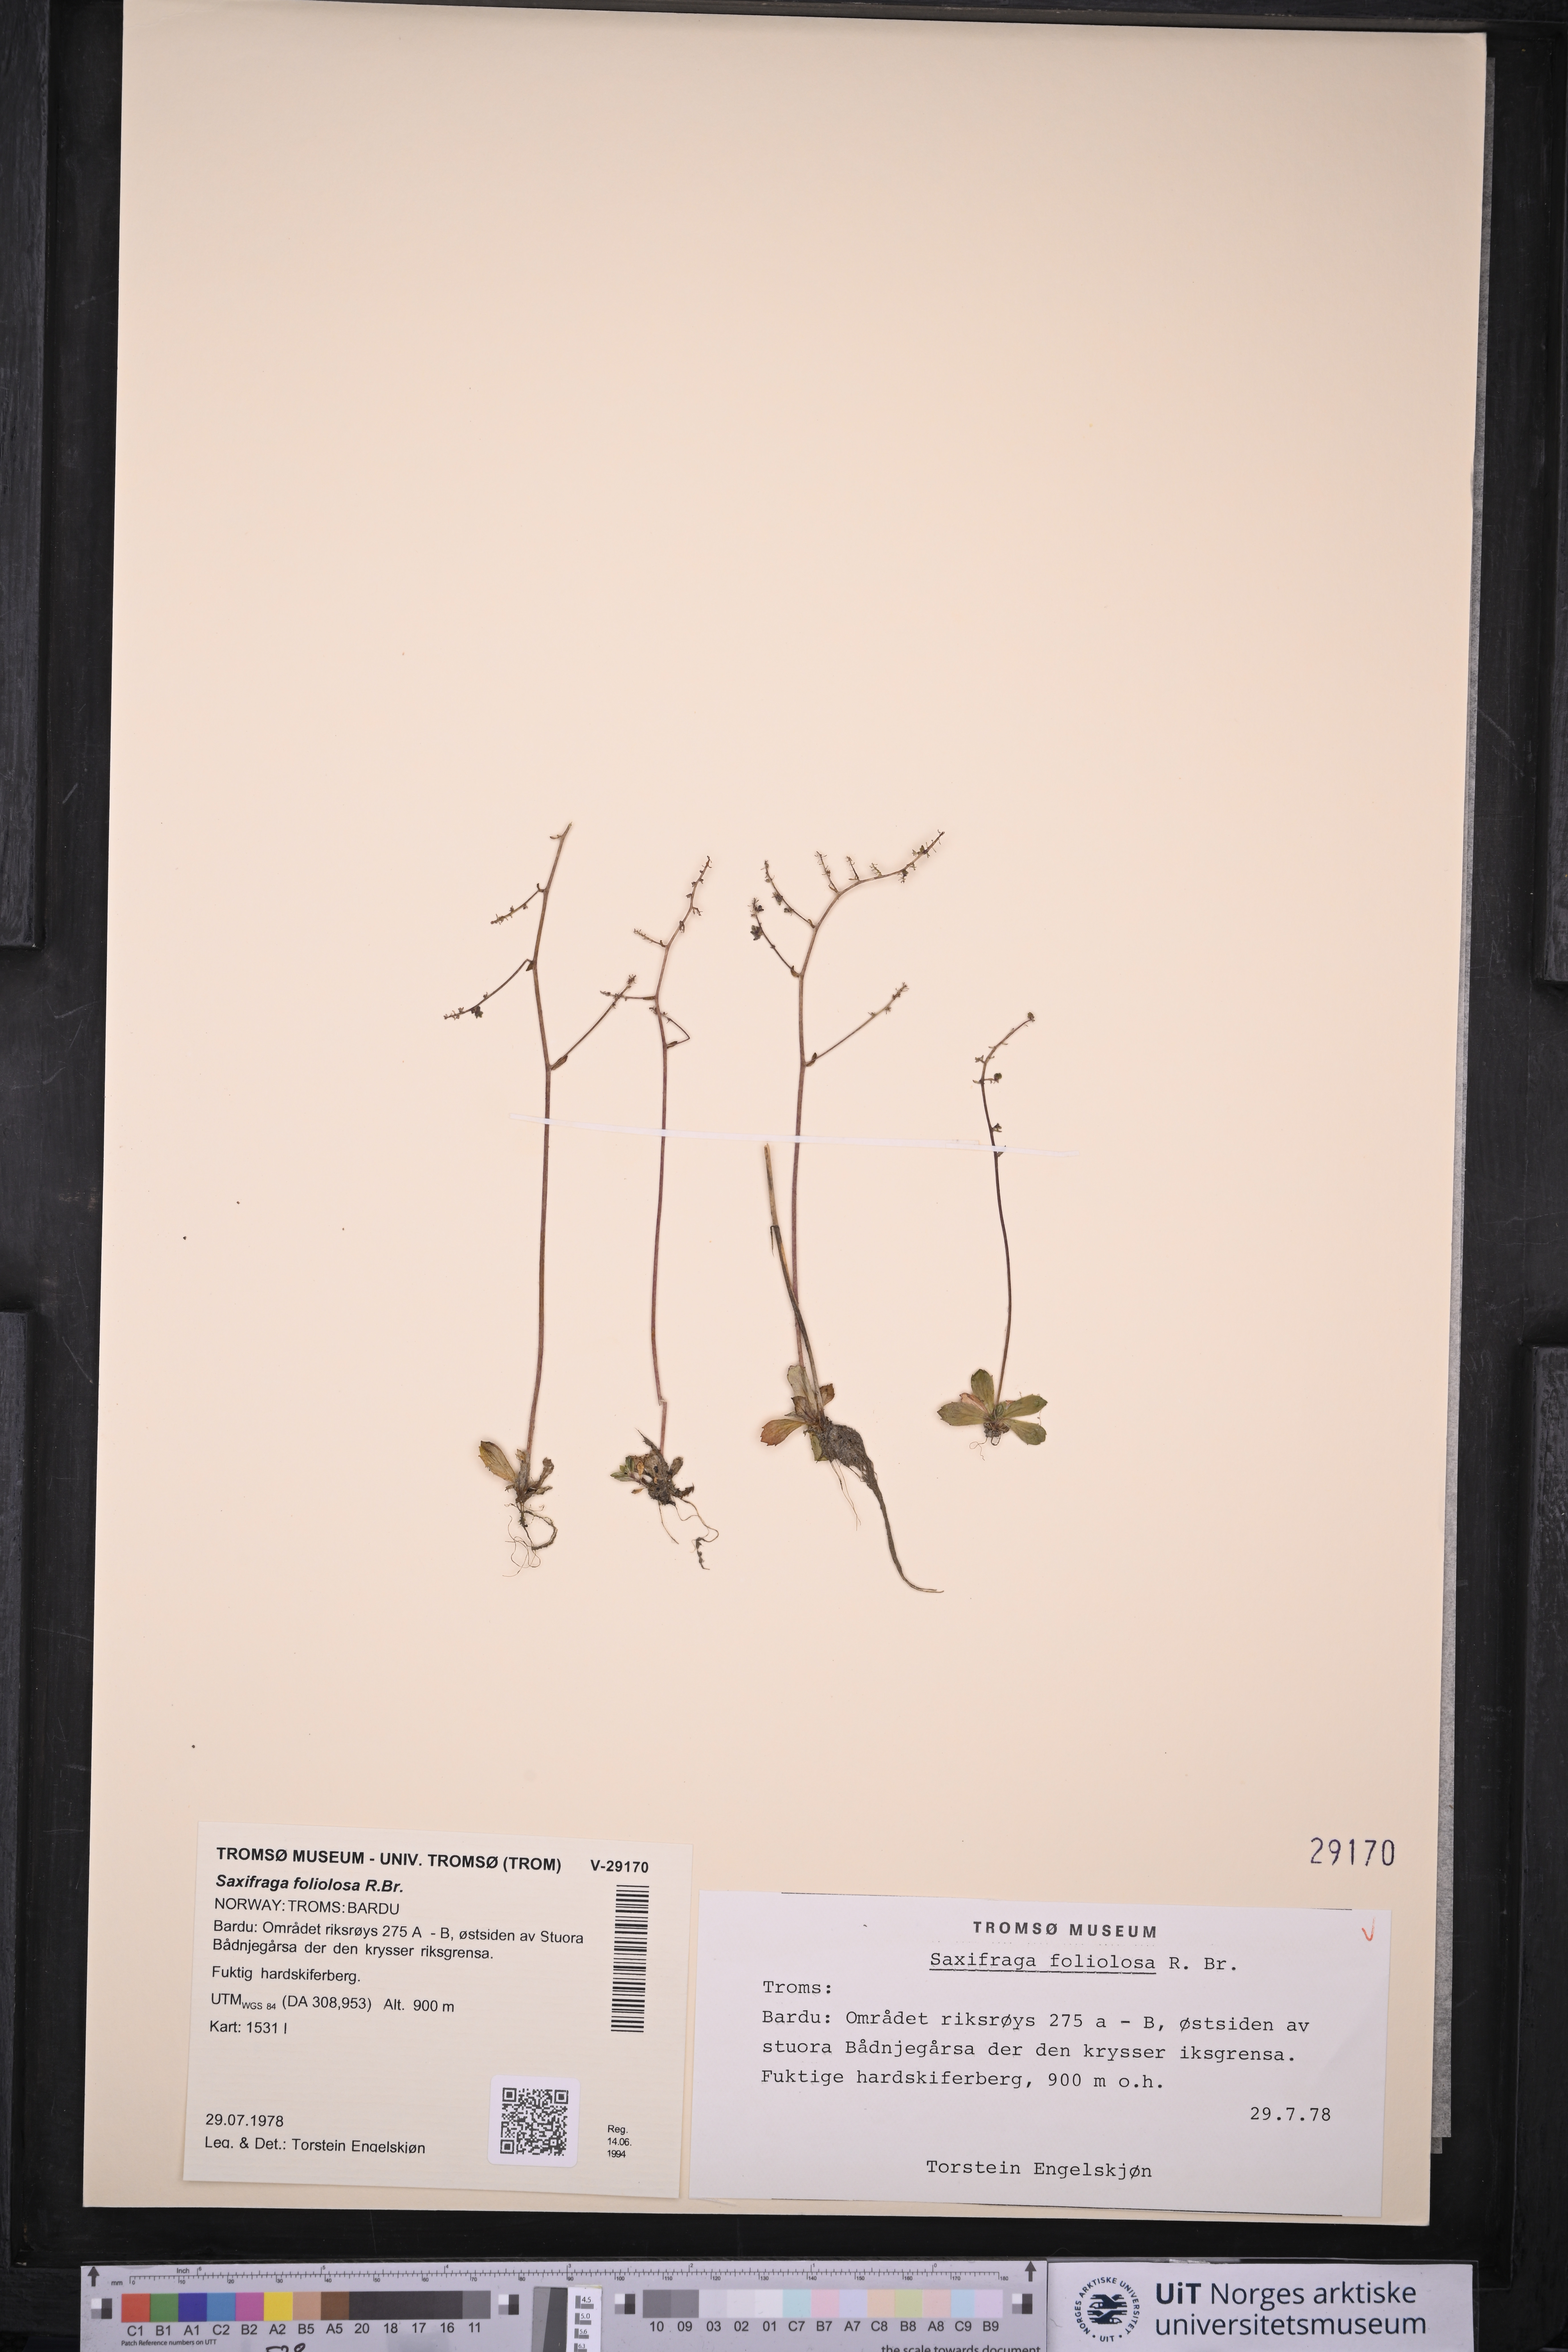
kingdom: Plantae
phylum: Tracheophyta
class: Magnoliopsida
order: Saxifragales
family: Saxifragaceae
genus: Micranthes
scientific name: Micranthes foliolosa
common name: Leafystem saxifrage
